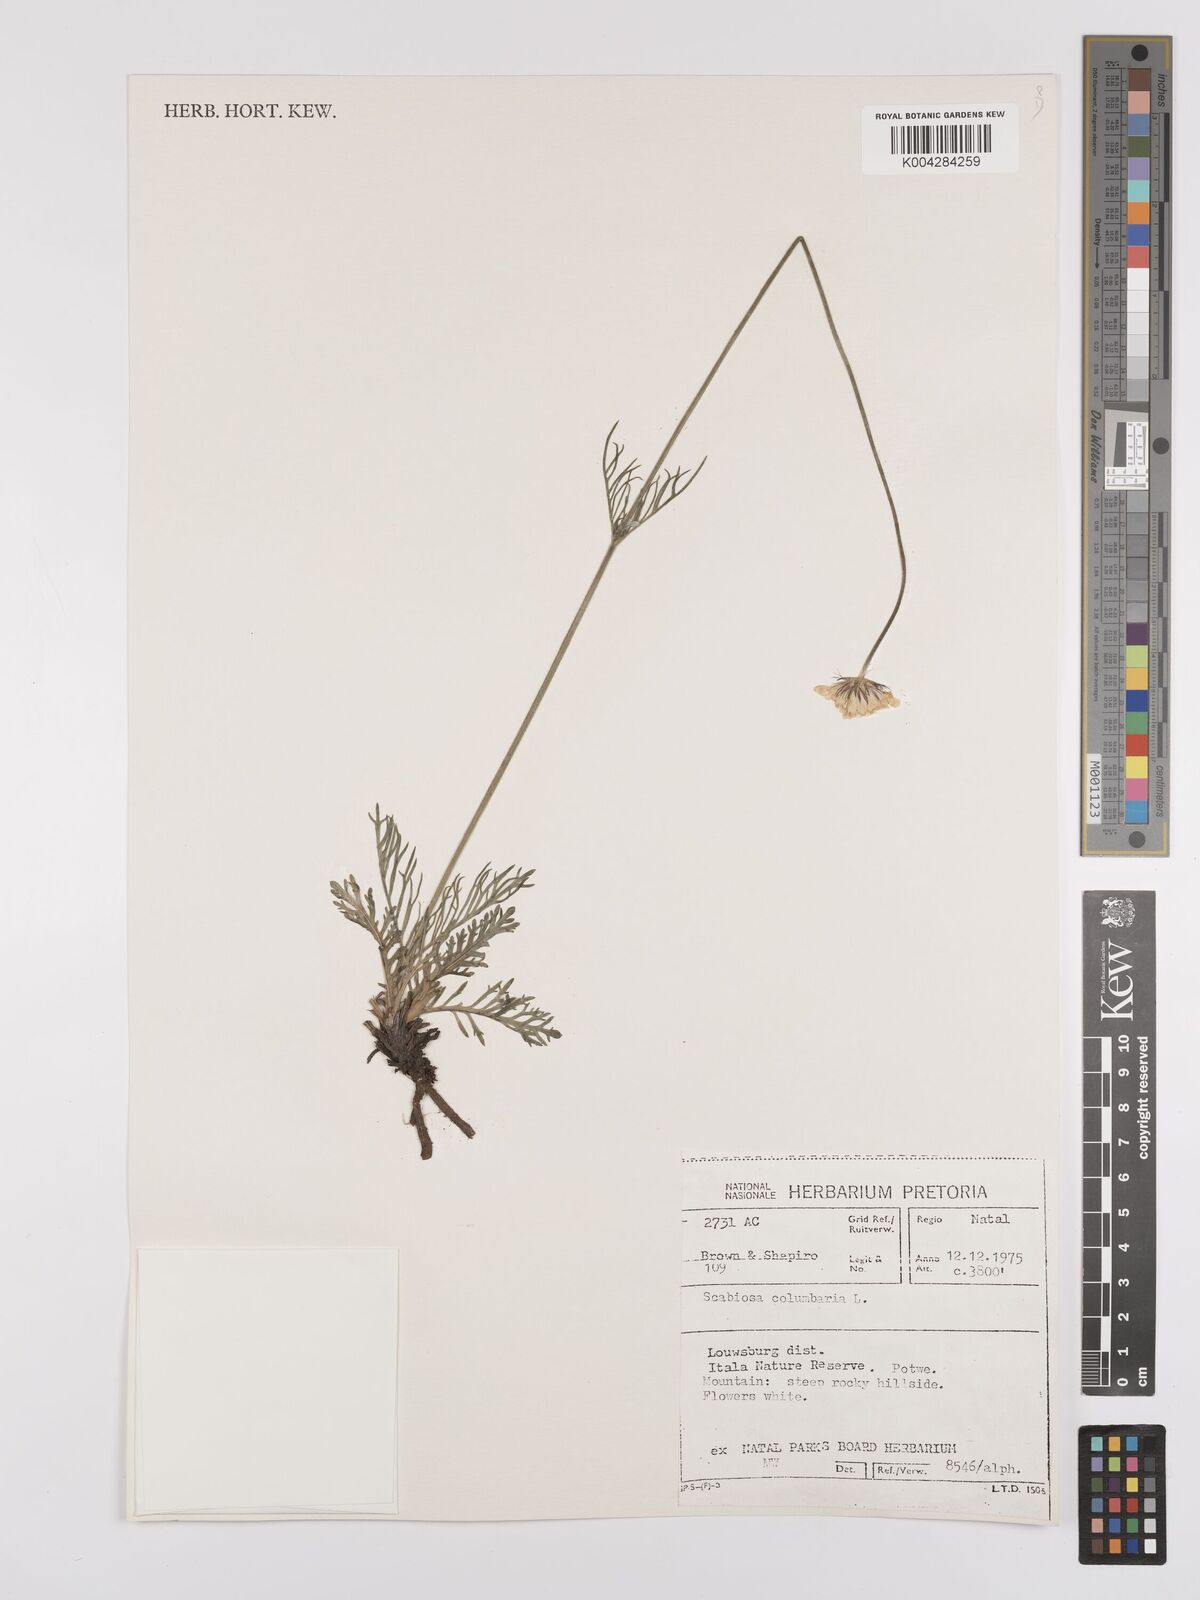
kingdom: Plantae
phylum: Tracheophyta
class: Magnoliopsida
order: Dipsacales
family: Caprifoliaceae
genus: Scabiosa
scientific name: Scabiosa columbaria
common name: Small scabious
